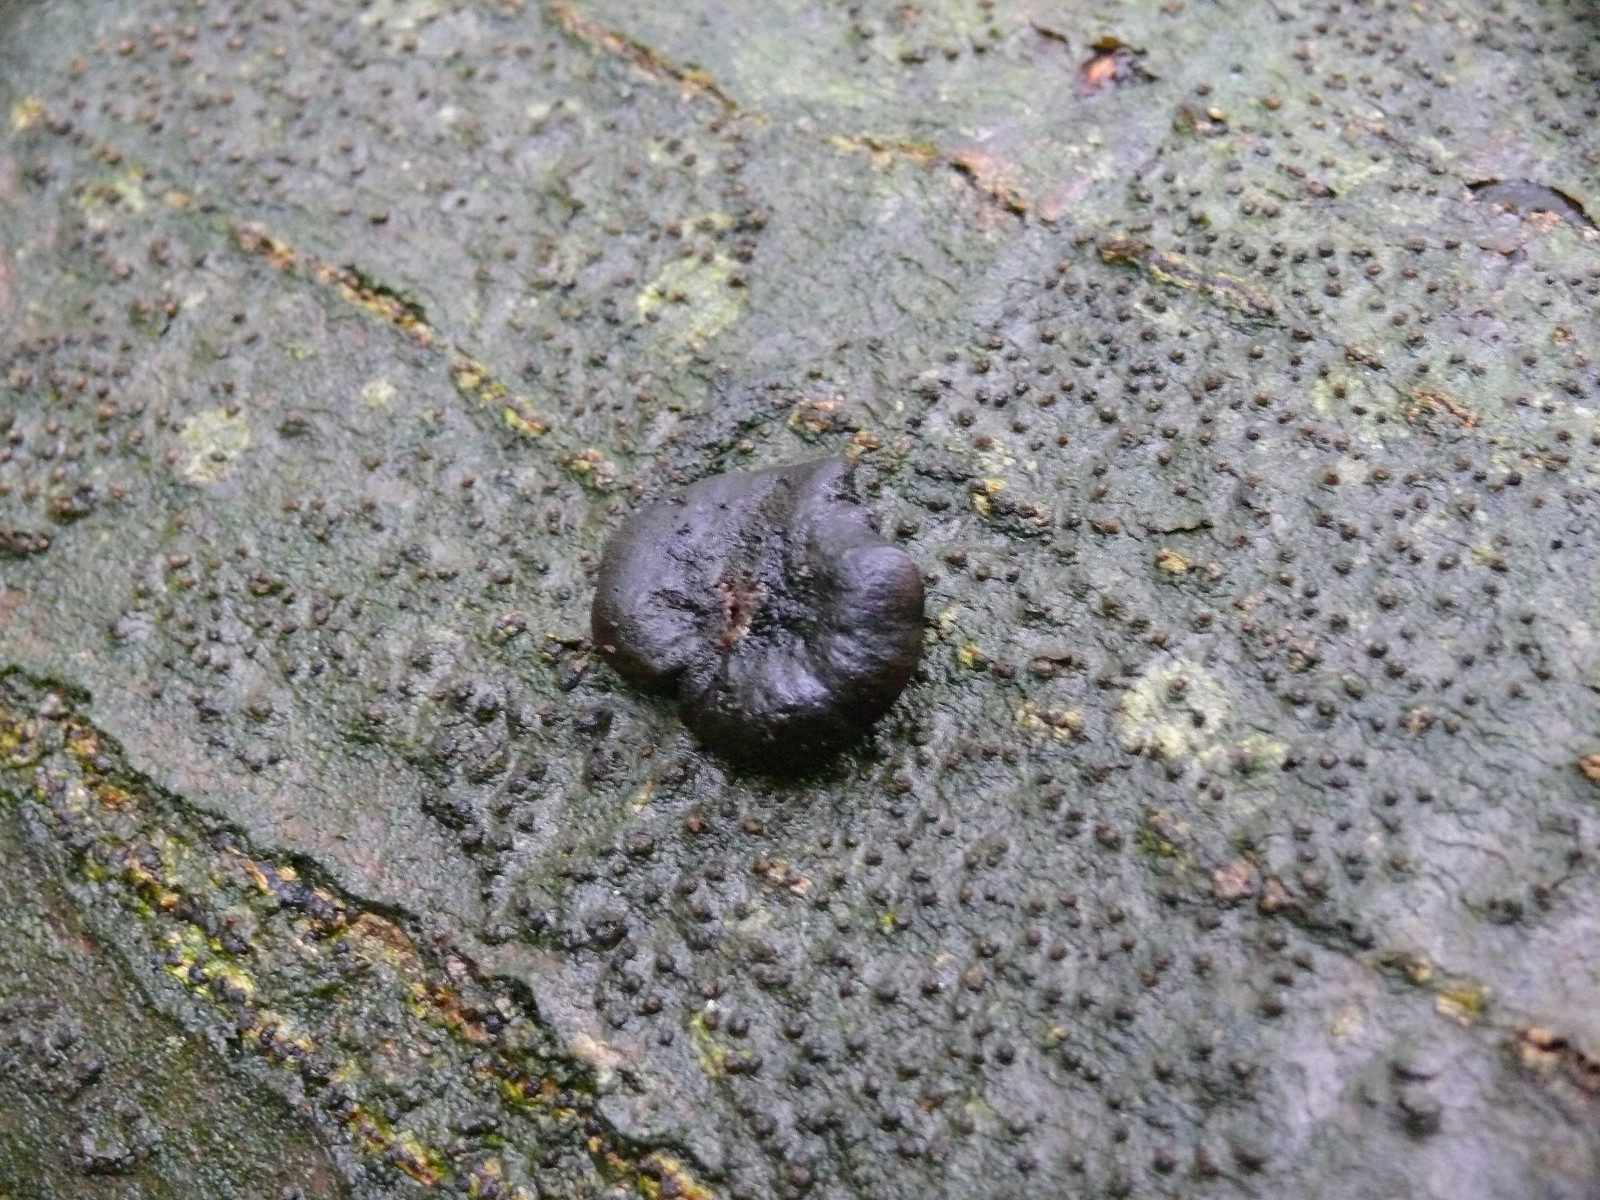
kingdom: Fungi
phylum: Ascomycota
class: Leotiomycetes
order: Phacidiales
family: Phacidiaceae
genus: Bulgaria
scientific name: Bulgaria inquinans
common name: afsmittende topsvamp
